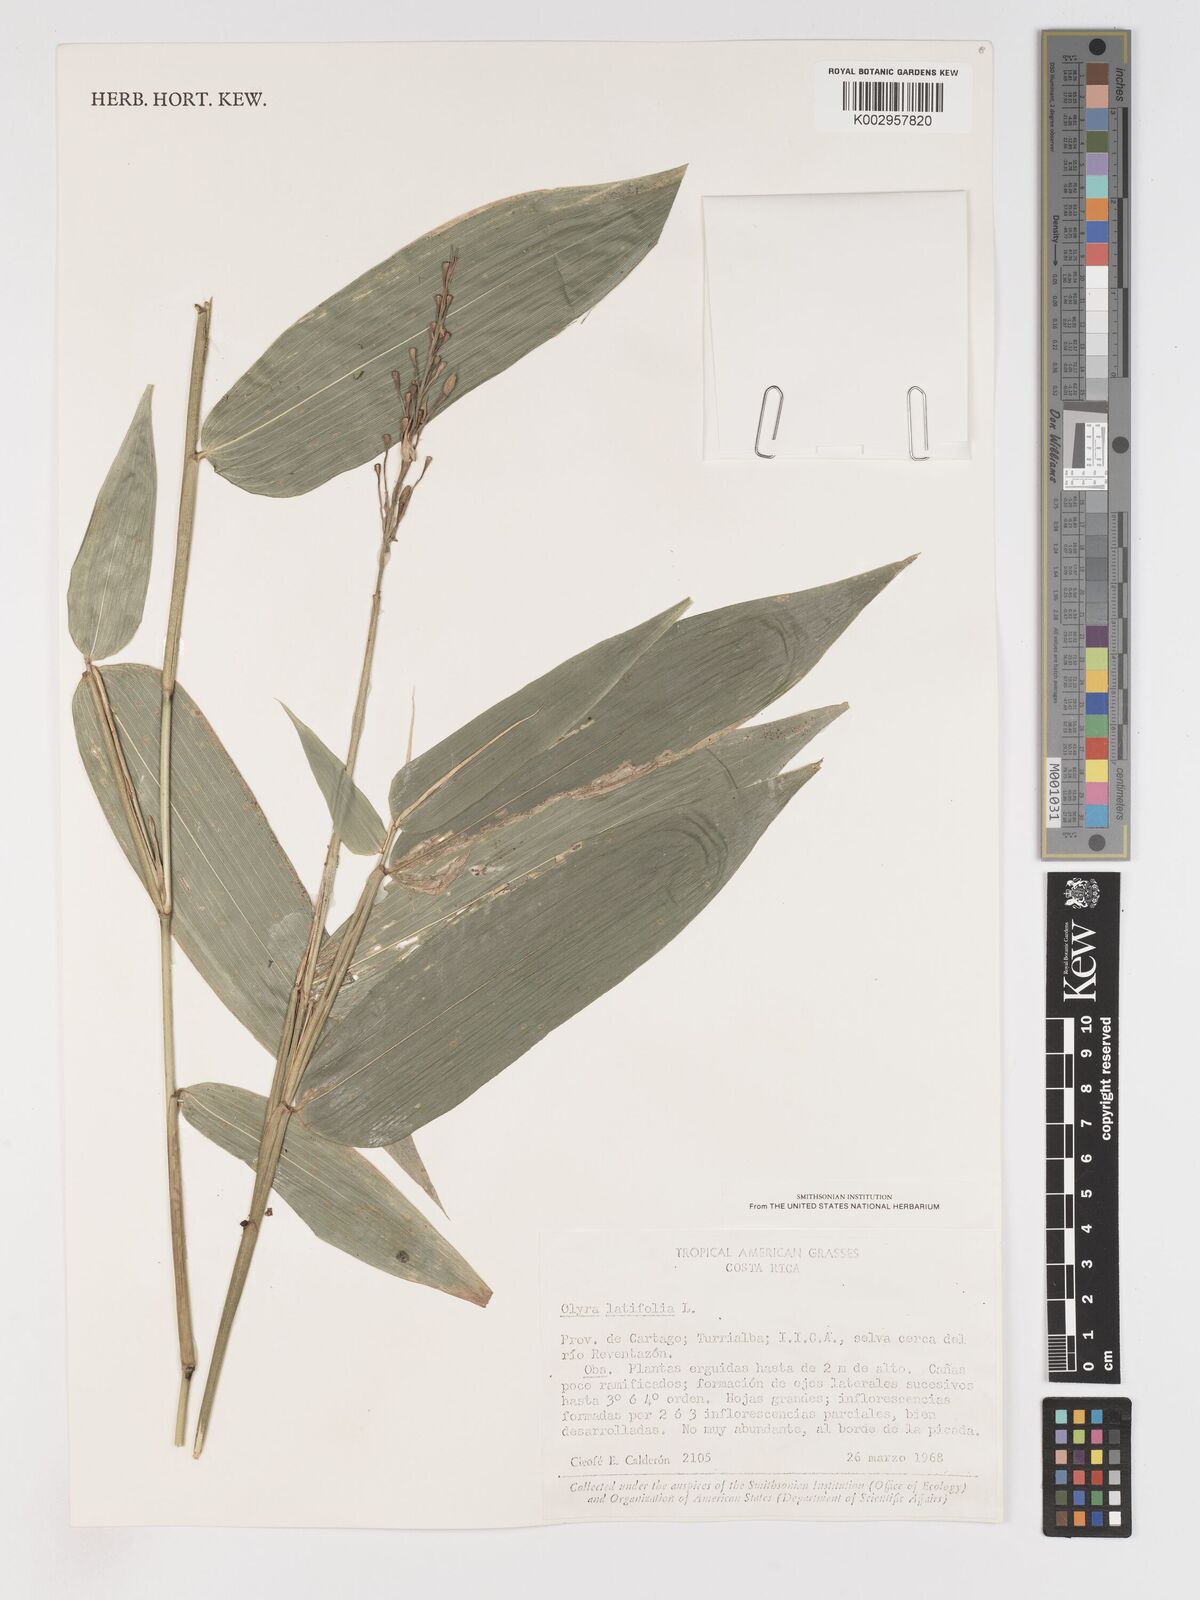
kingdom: Plantae
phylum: Tracheophyta
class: Liliopsida
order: Poales
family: Poaceae
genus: Olyra
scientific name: Olyra latifolia
